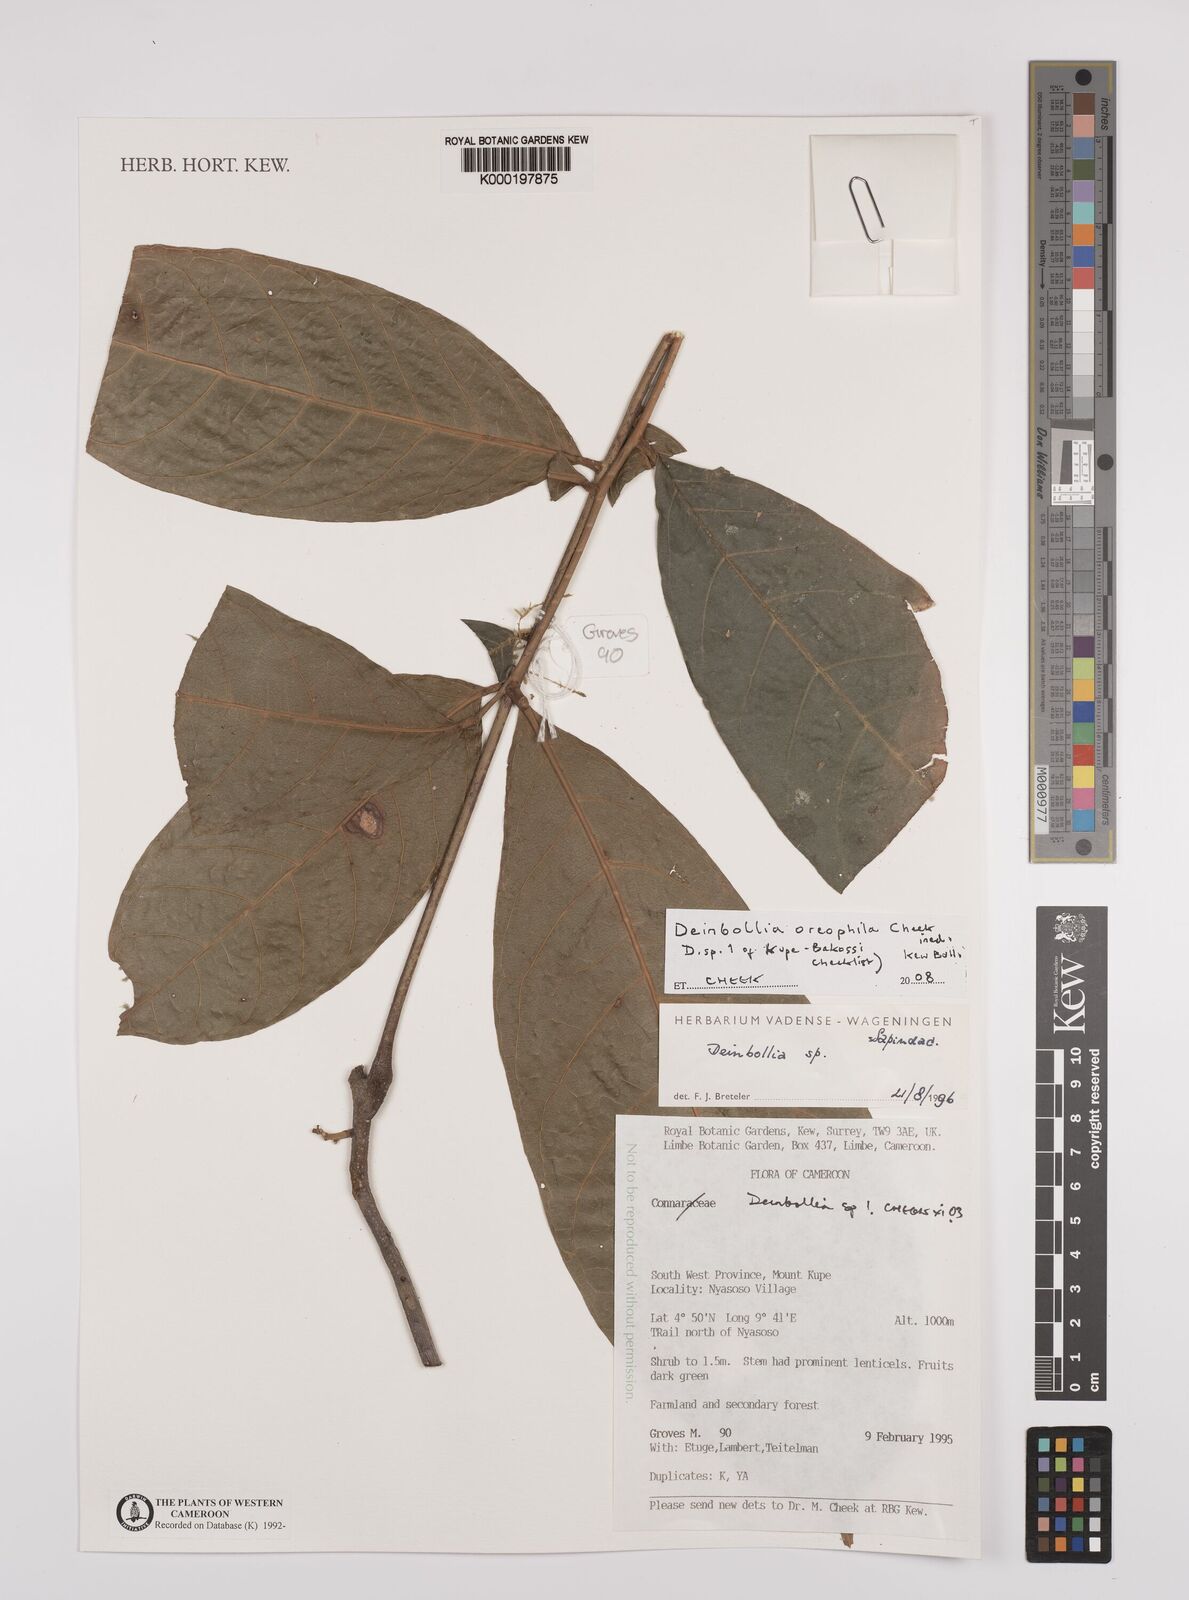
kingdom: Plantae
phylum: Tracheophyta
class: Magnoliopsida
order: Sapindales
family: Sapindaceae
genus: Deinbollia
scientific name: Deinbollia oreophila
